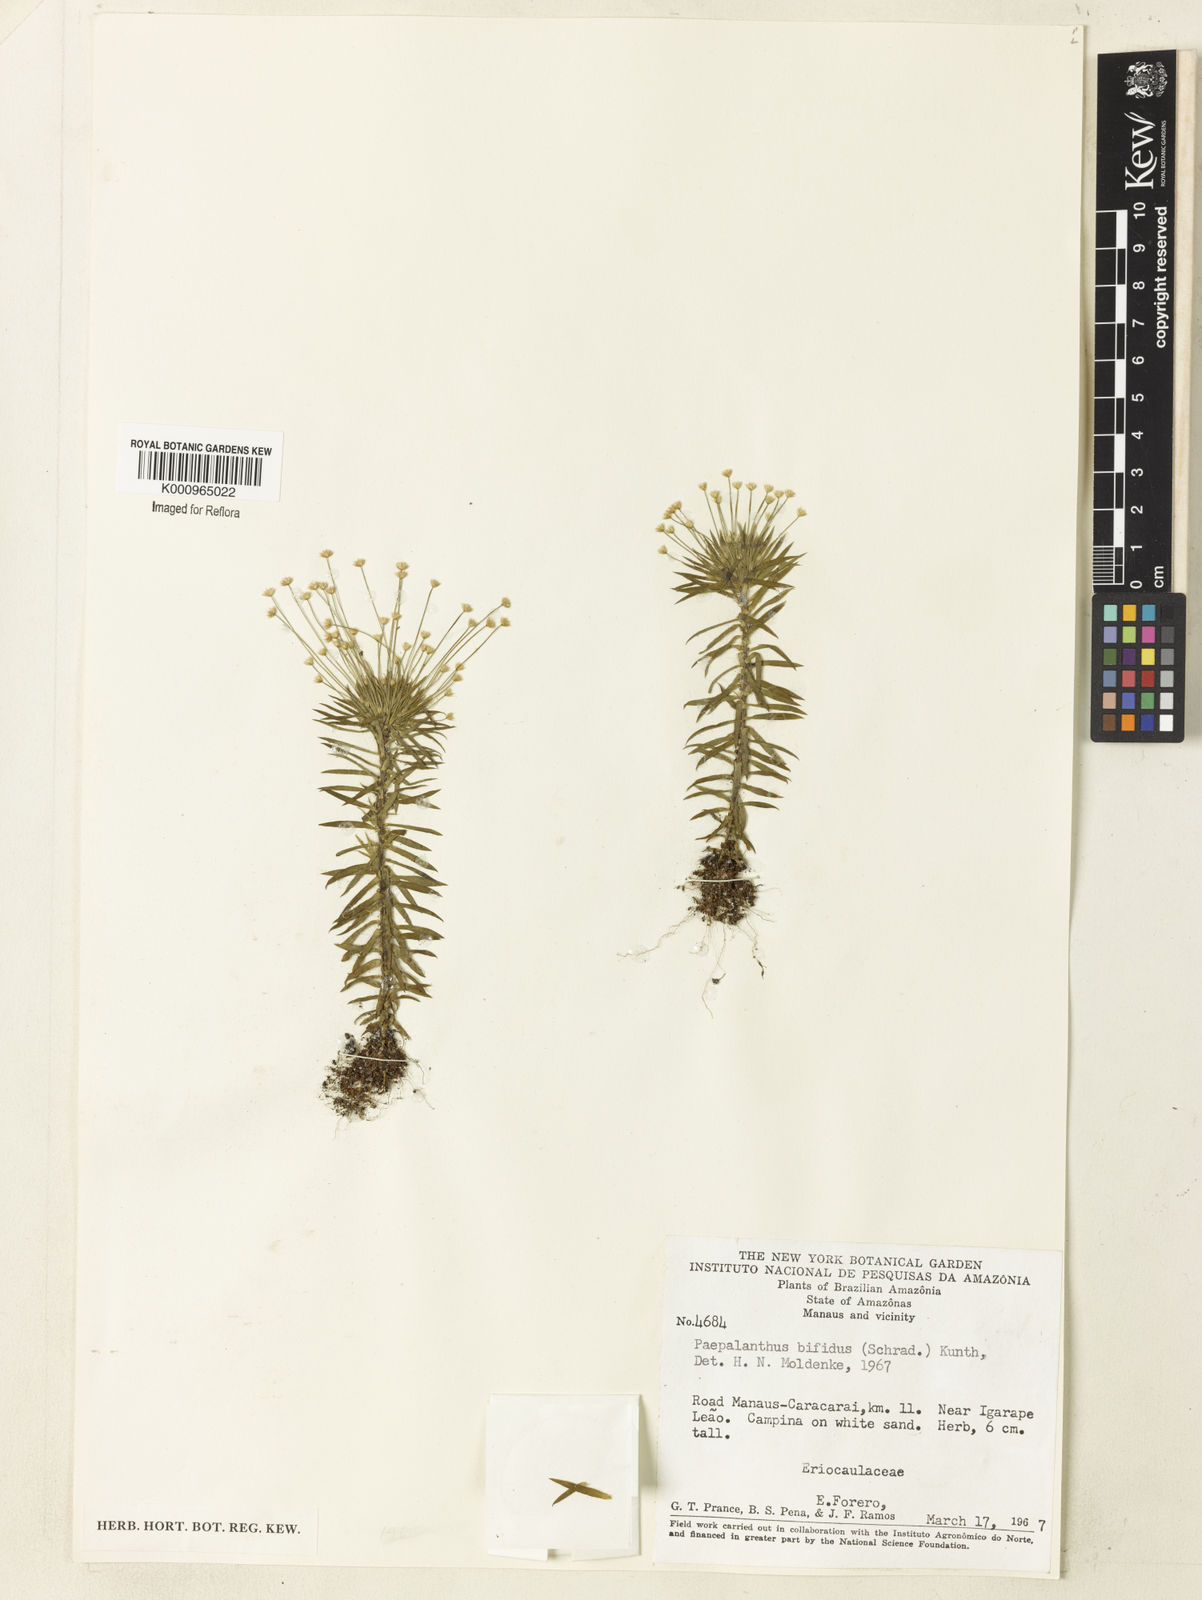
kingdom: Plantae
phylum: Tracheophyta
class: Liliopsida
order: Poales
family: Eriocaulaceae
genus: Paepalanthus
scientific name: Paepalanthus bifidus
